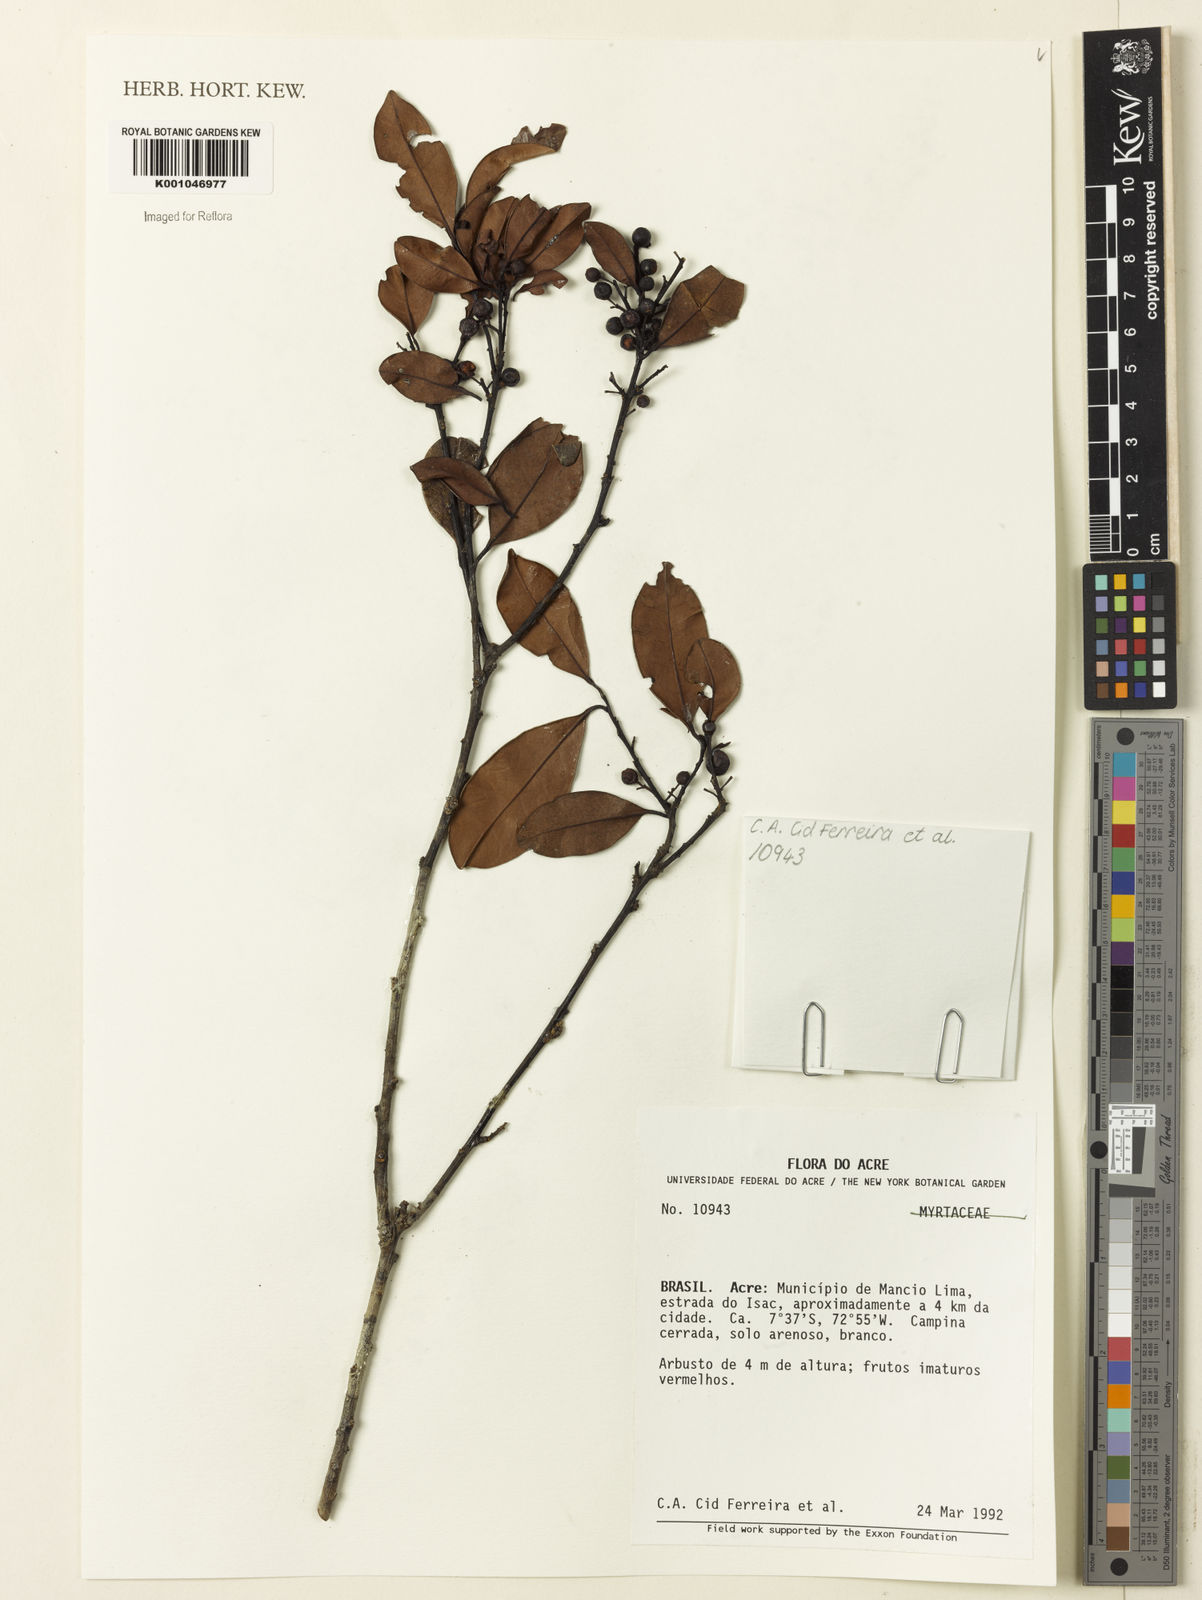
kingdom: Plantae
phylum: Tracheophyta
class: Magnoliopsida
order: Aquifoliales
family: Aquifoliaceae
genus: Ilex
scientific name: Ilex
